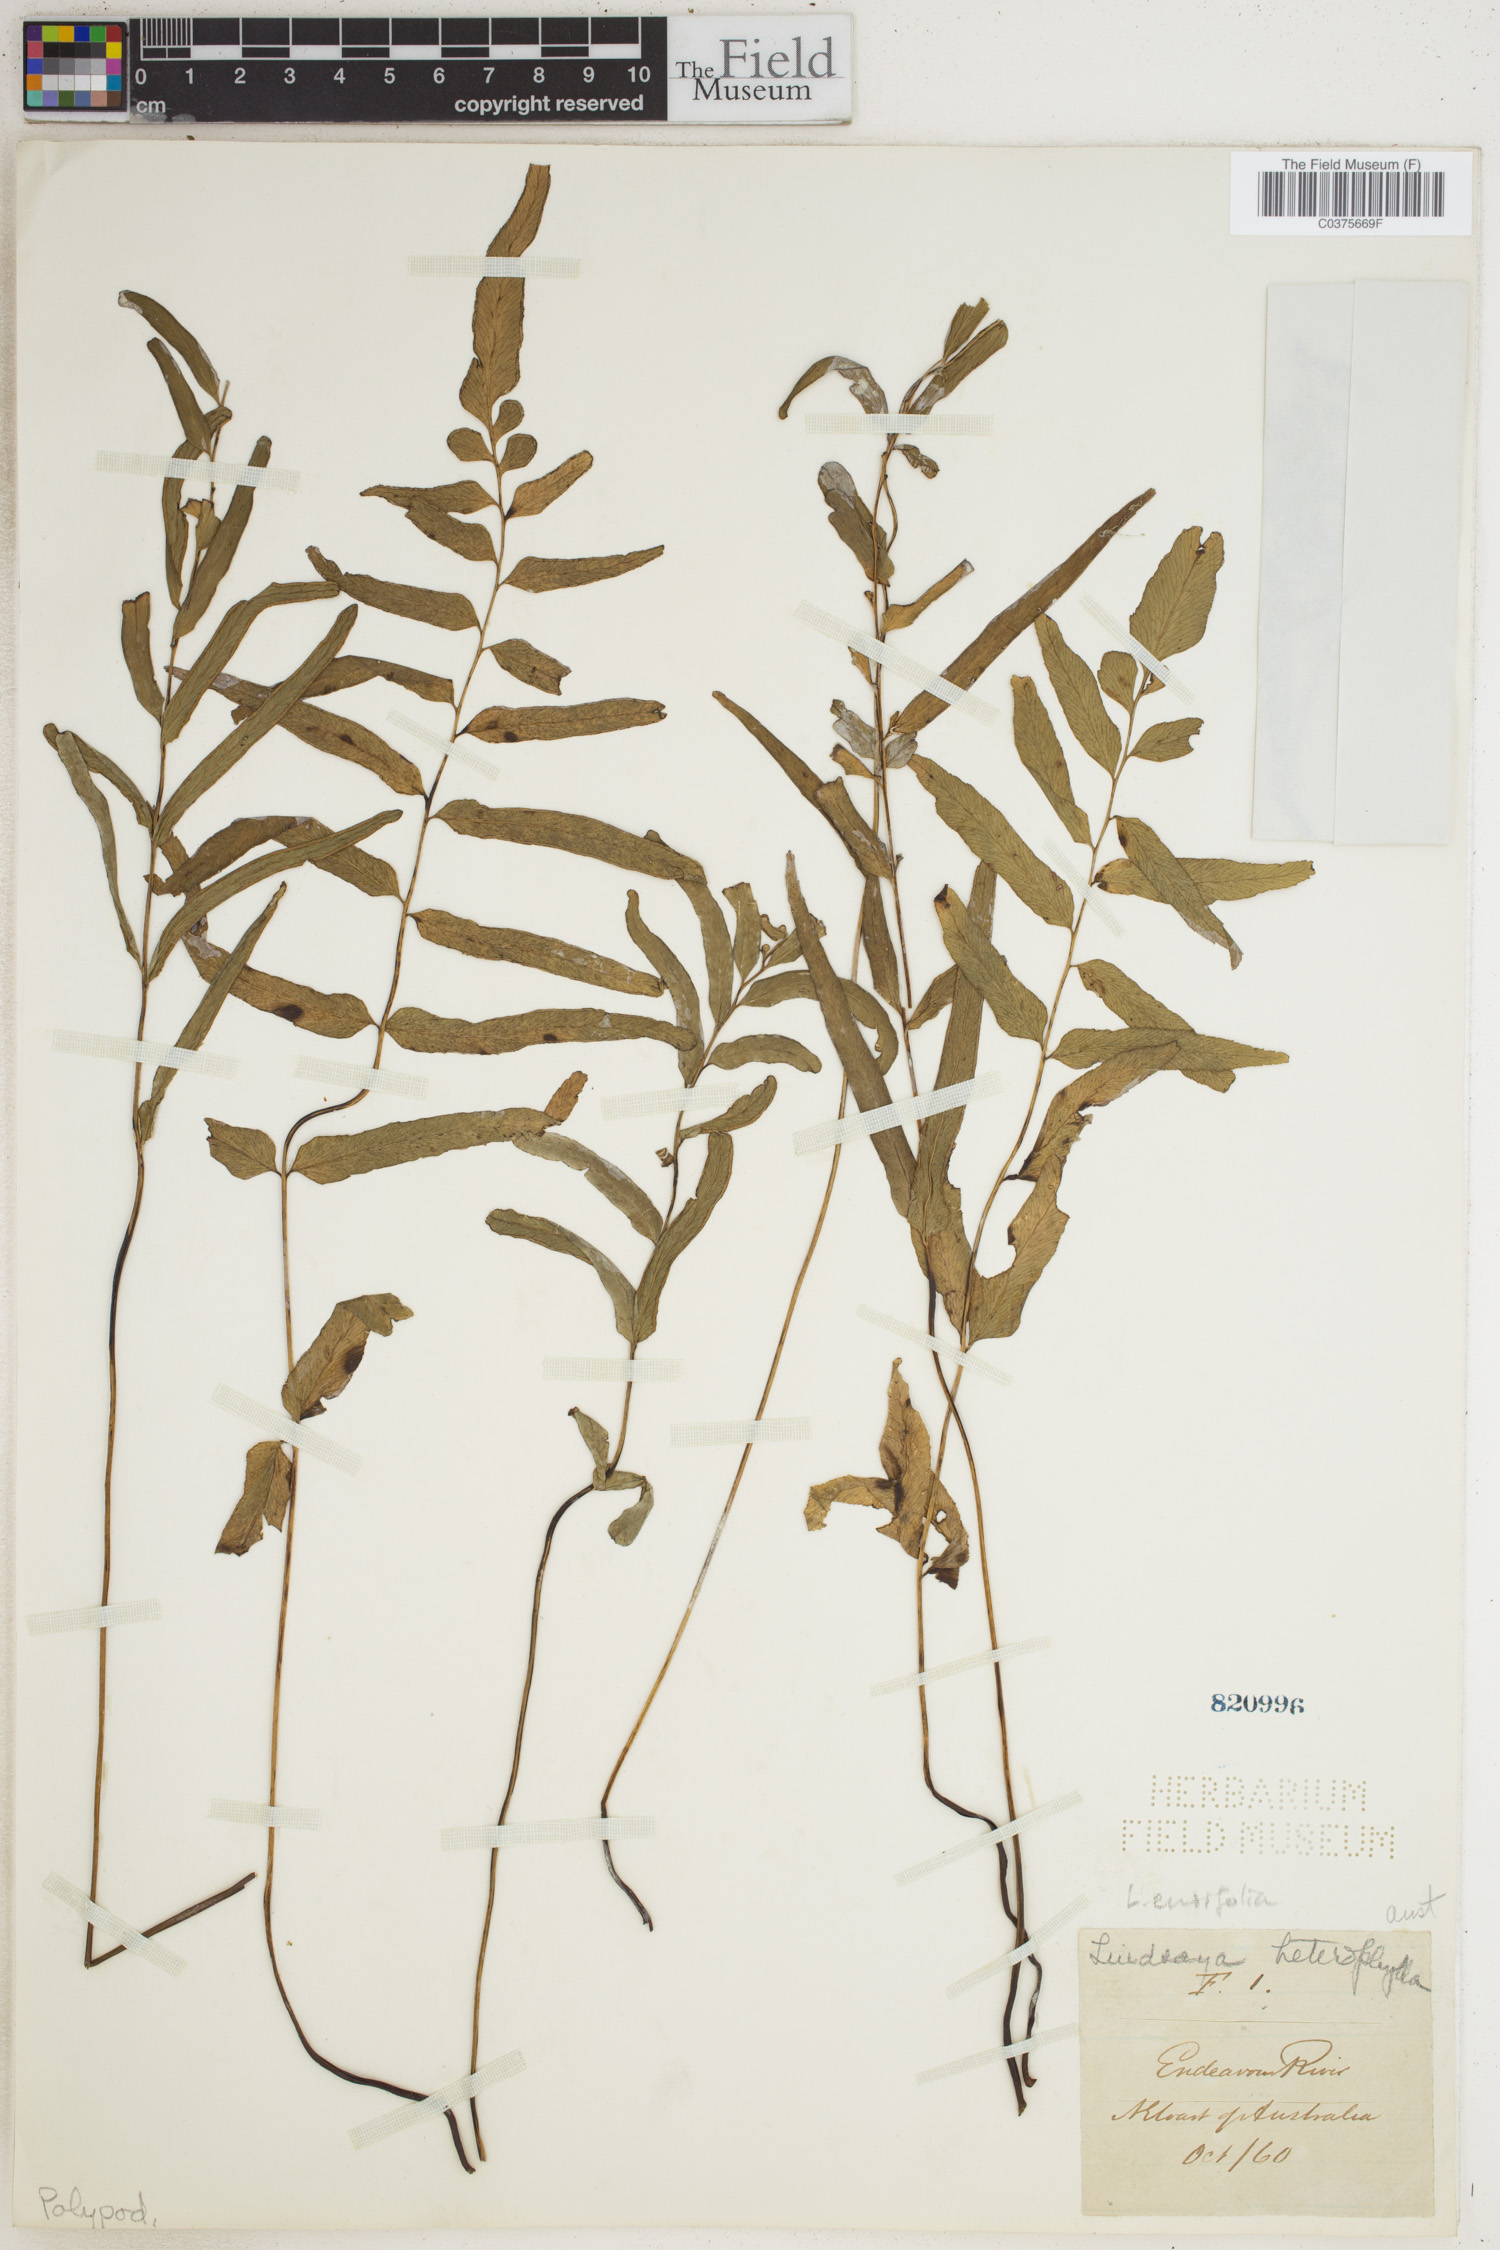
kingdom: Plantae
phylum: Tracheophyta
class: Polypodiopsida
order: Polypodiales
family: Lindsaeaceae
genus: Lindsaea
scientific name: Lindsaea ensifolia
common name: Graceful necklace fern
